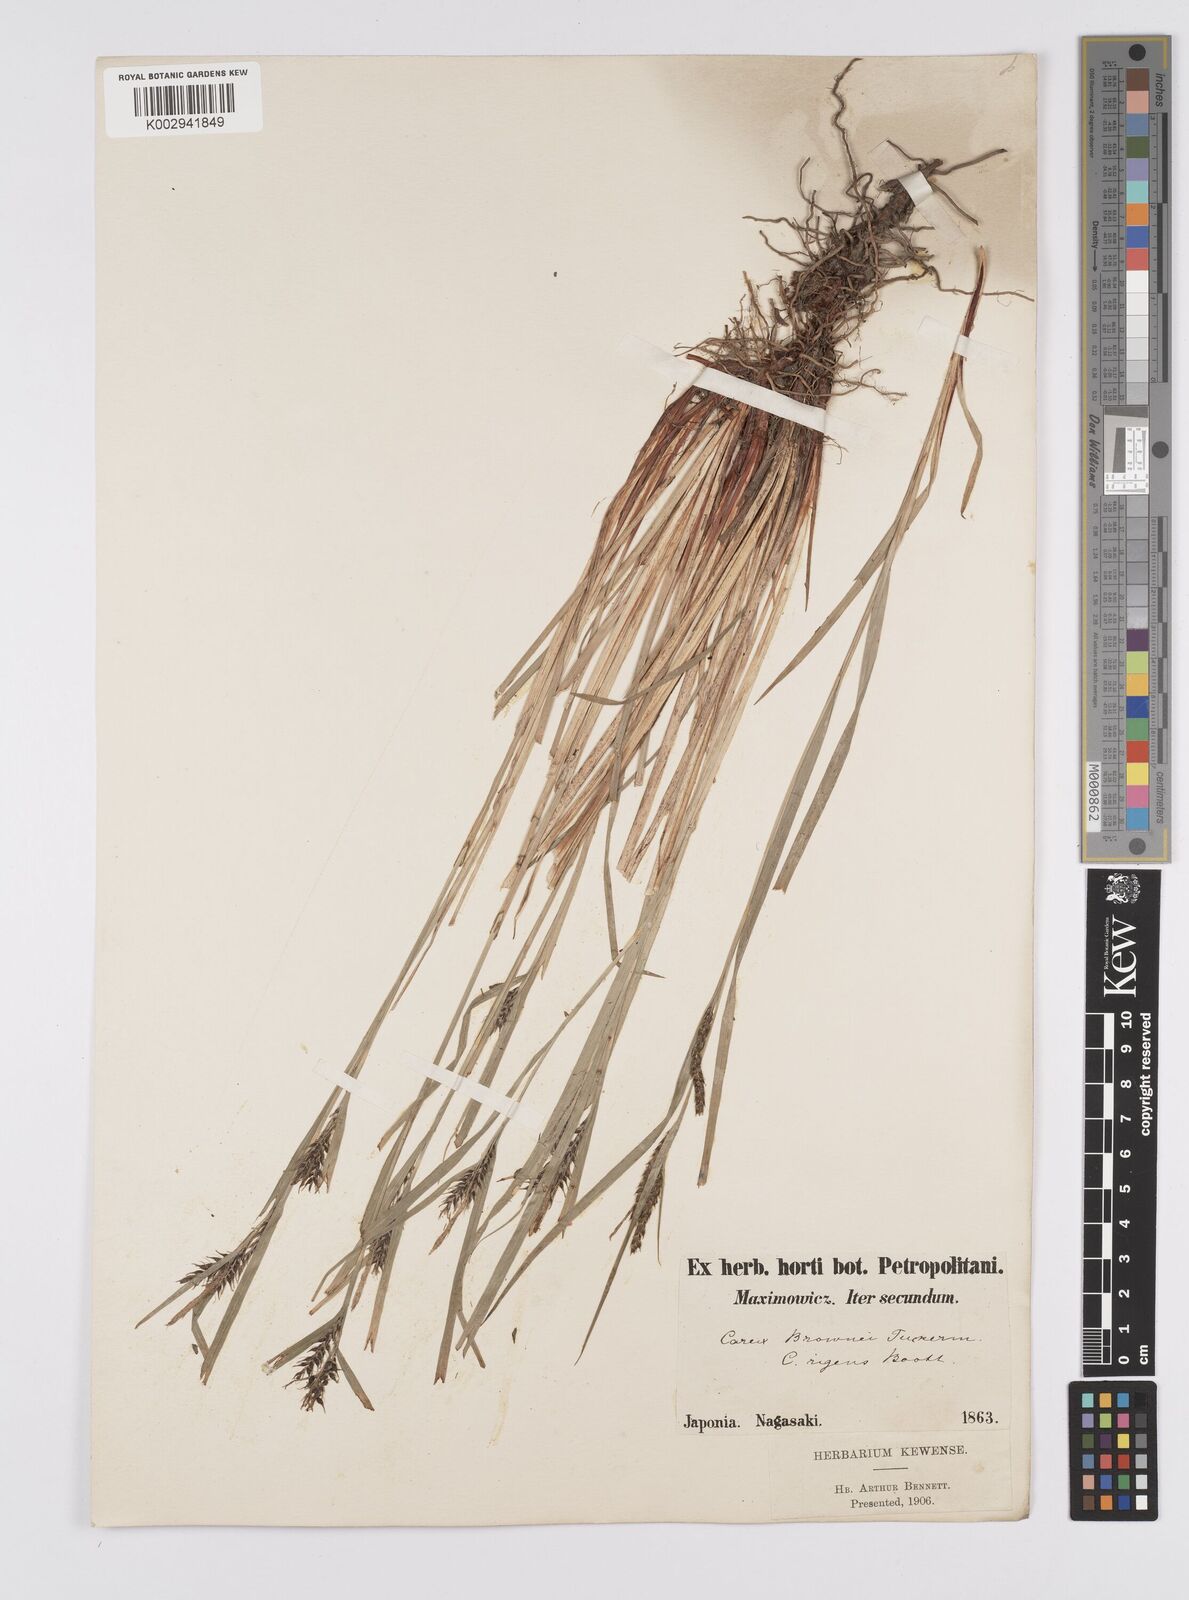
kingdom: Plantae
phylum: Tracheophyta
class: Liliopsida
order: Poales
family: Cyperaceae
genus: Carex
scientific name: Carex brownii
